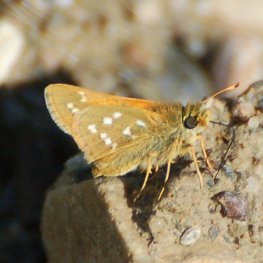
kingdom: Animalia
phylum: Arthropoda
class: Insecta
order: Lepidoptera
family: Hesperiidae
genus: Hesperia
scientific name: Hesperia comma
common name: Common Branded Skipper
